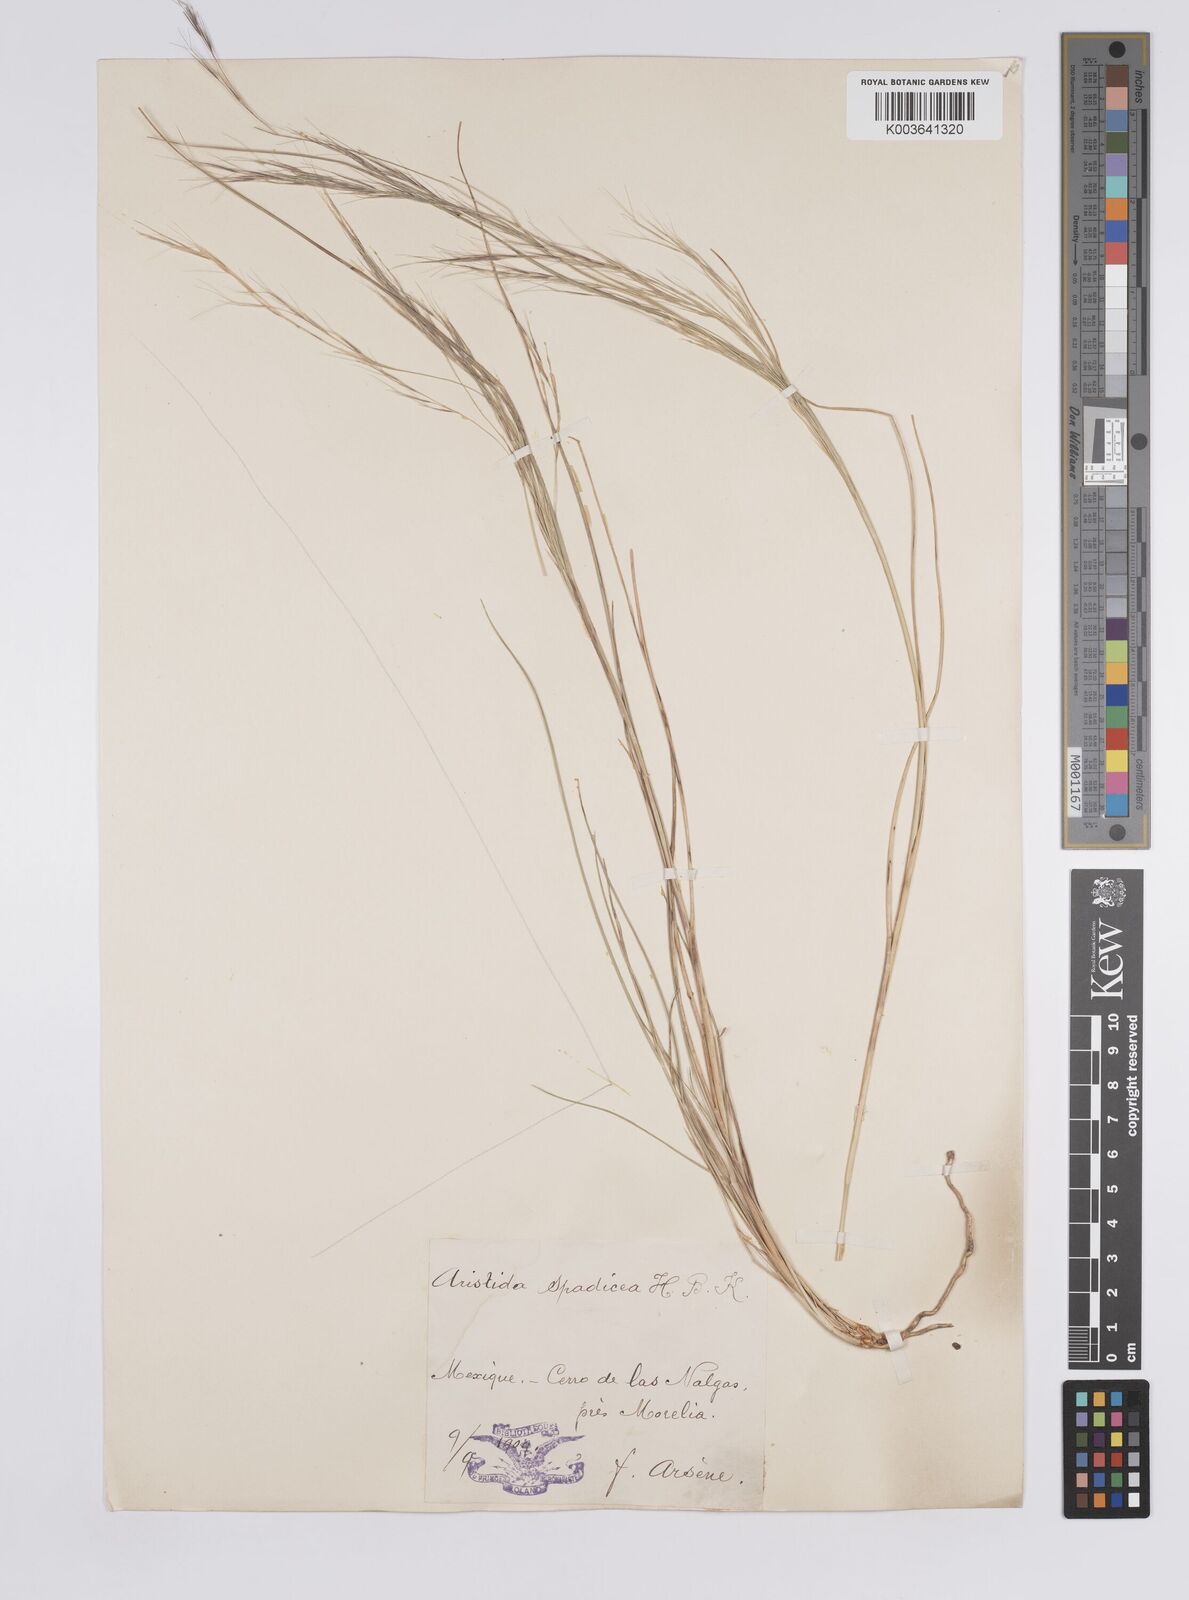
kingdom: Plantae
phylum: Tracheophyta
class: Liliopsida
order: Poales
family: Poaceae
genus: Aristida
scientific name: Aristida laxa
